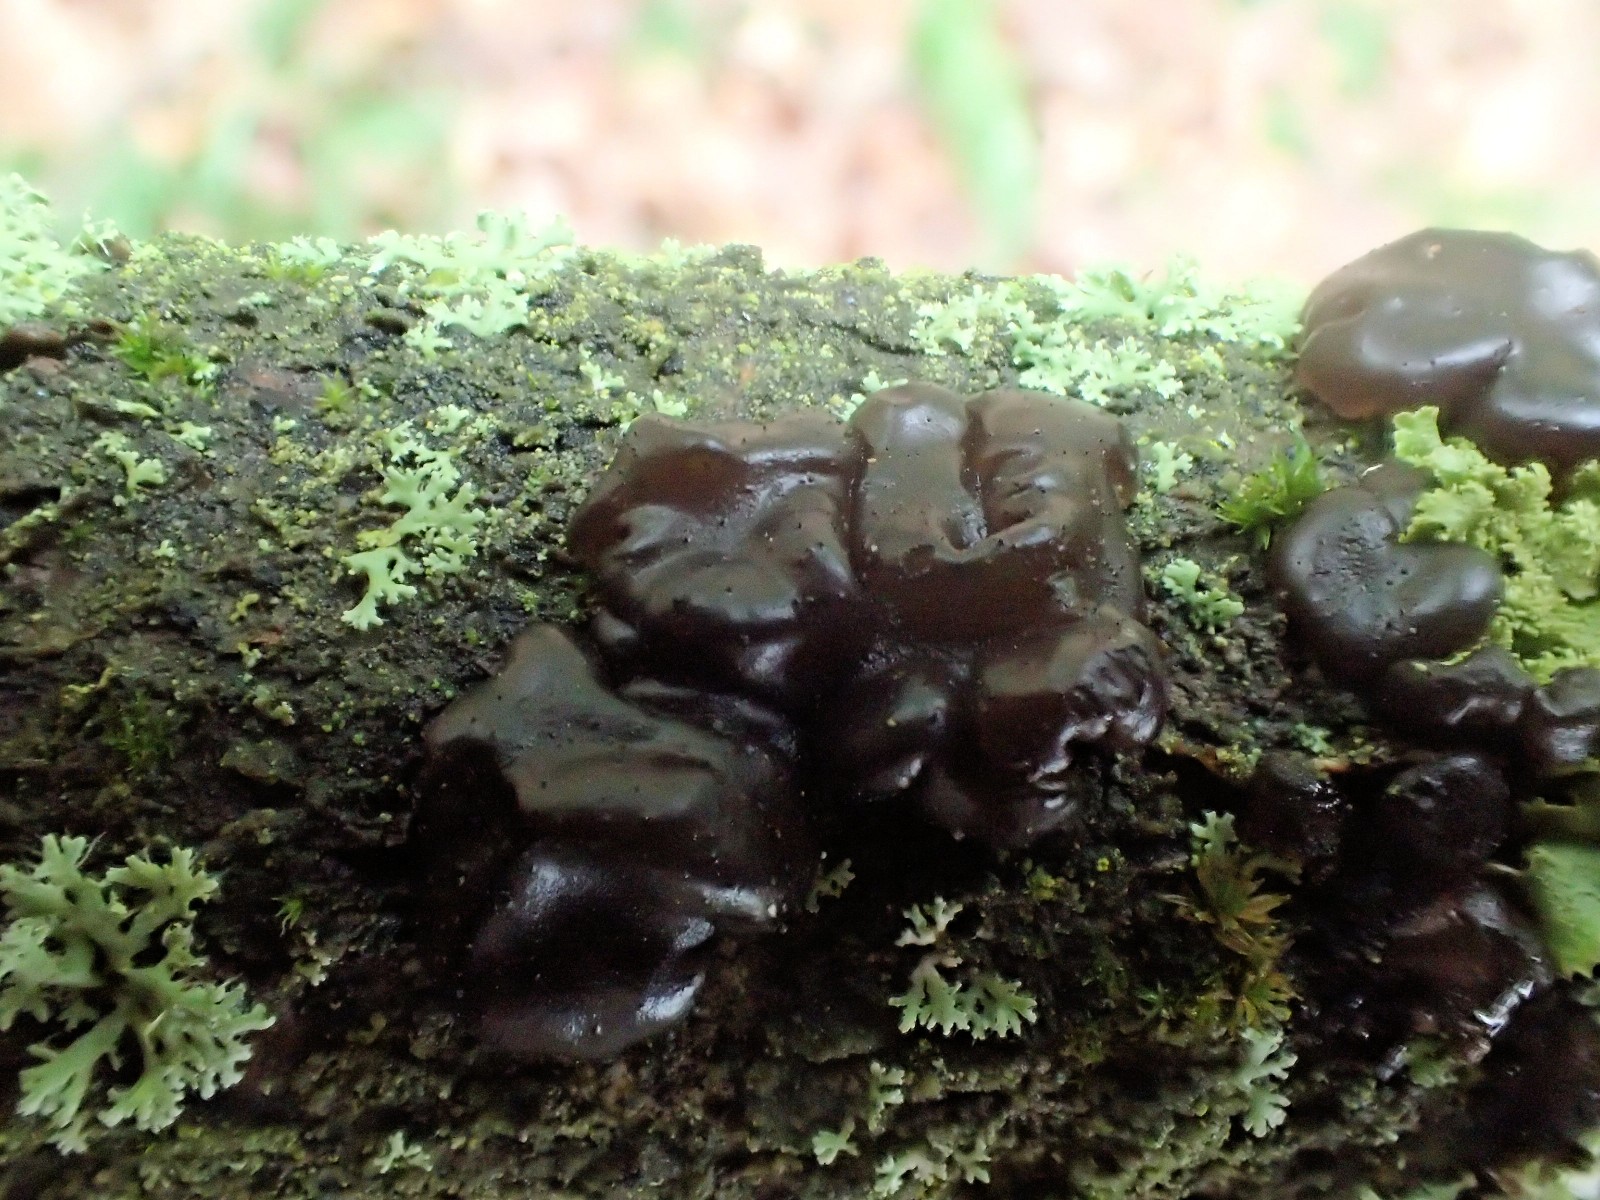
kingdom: Fungi
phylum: Basidiomycota
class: Tremellomycetes
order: Tremellales
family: Exidiaceae
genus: Exidia
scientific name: Exidia
